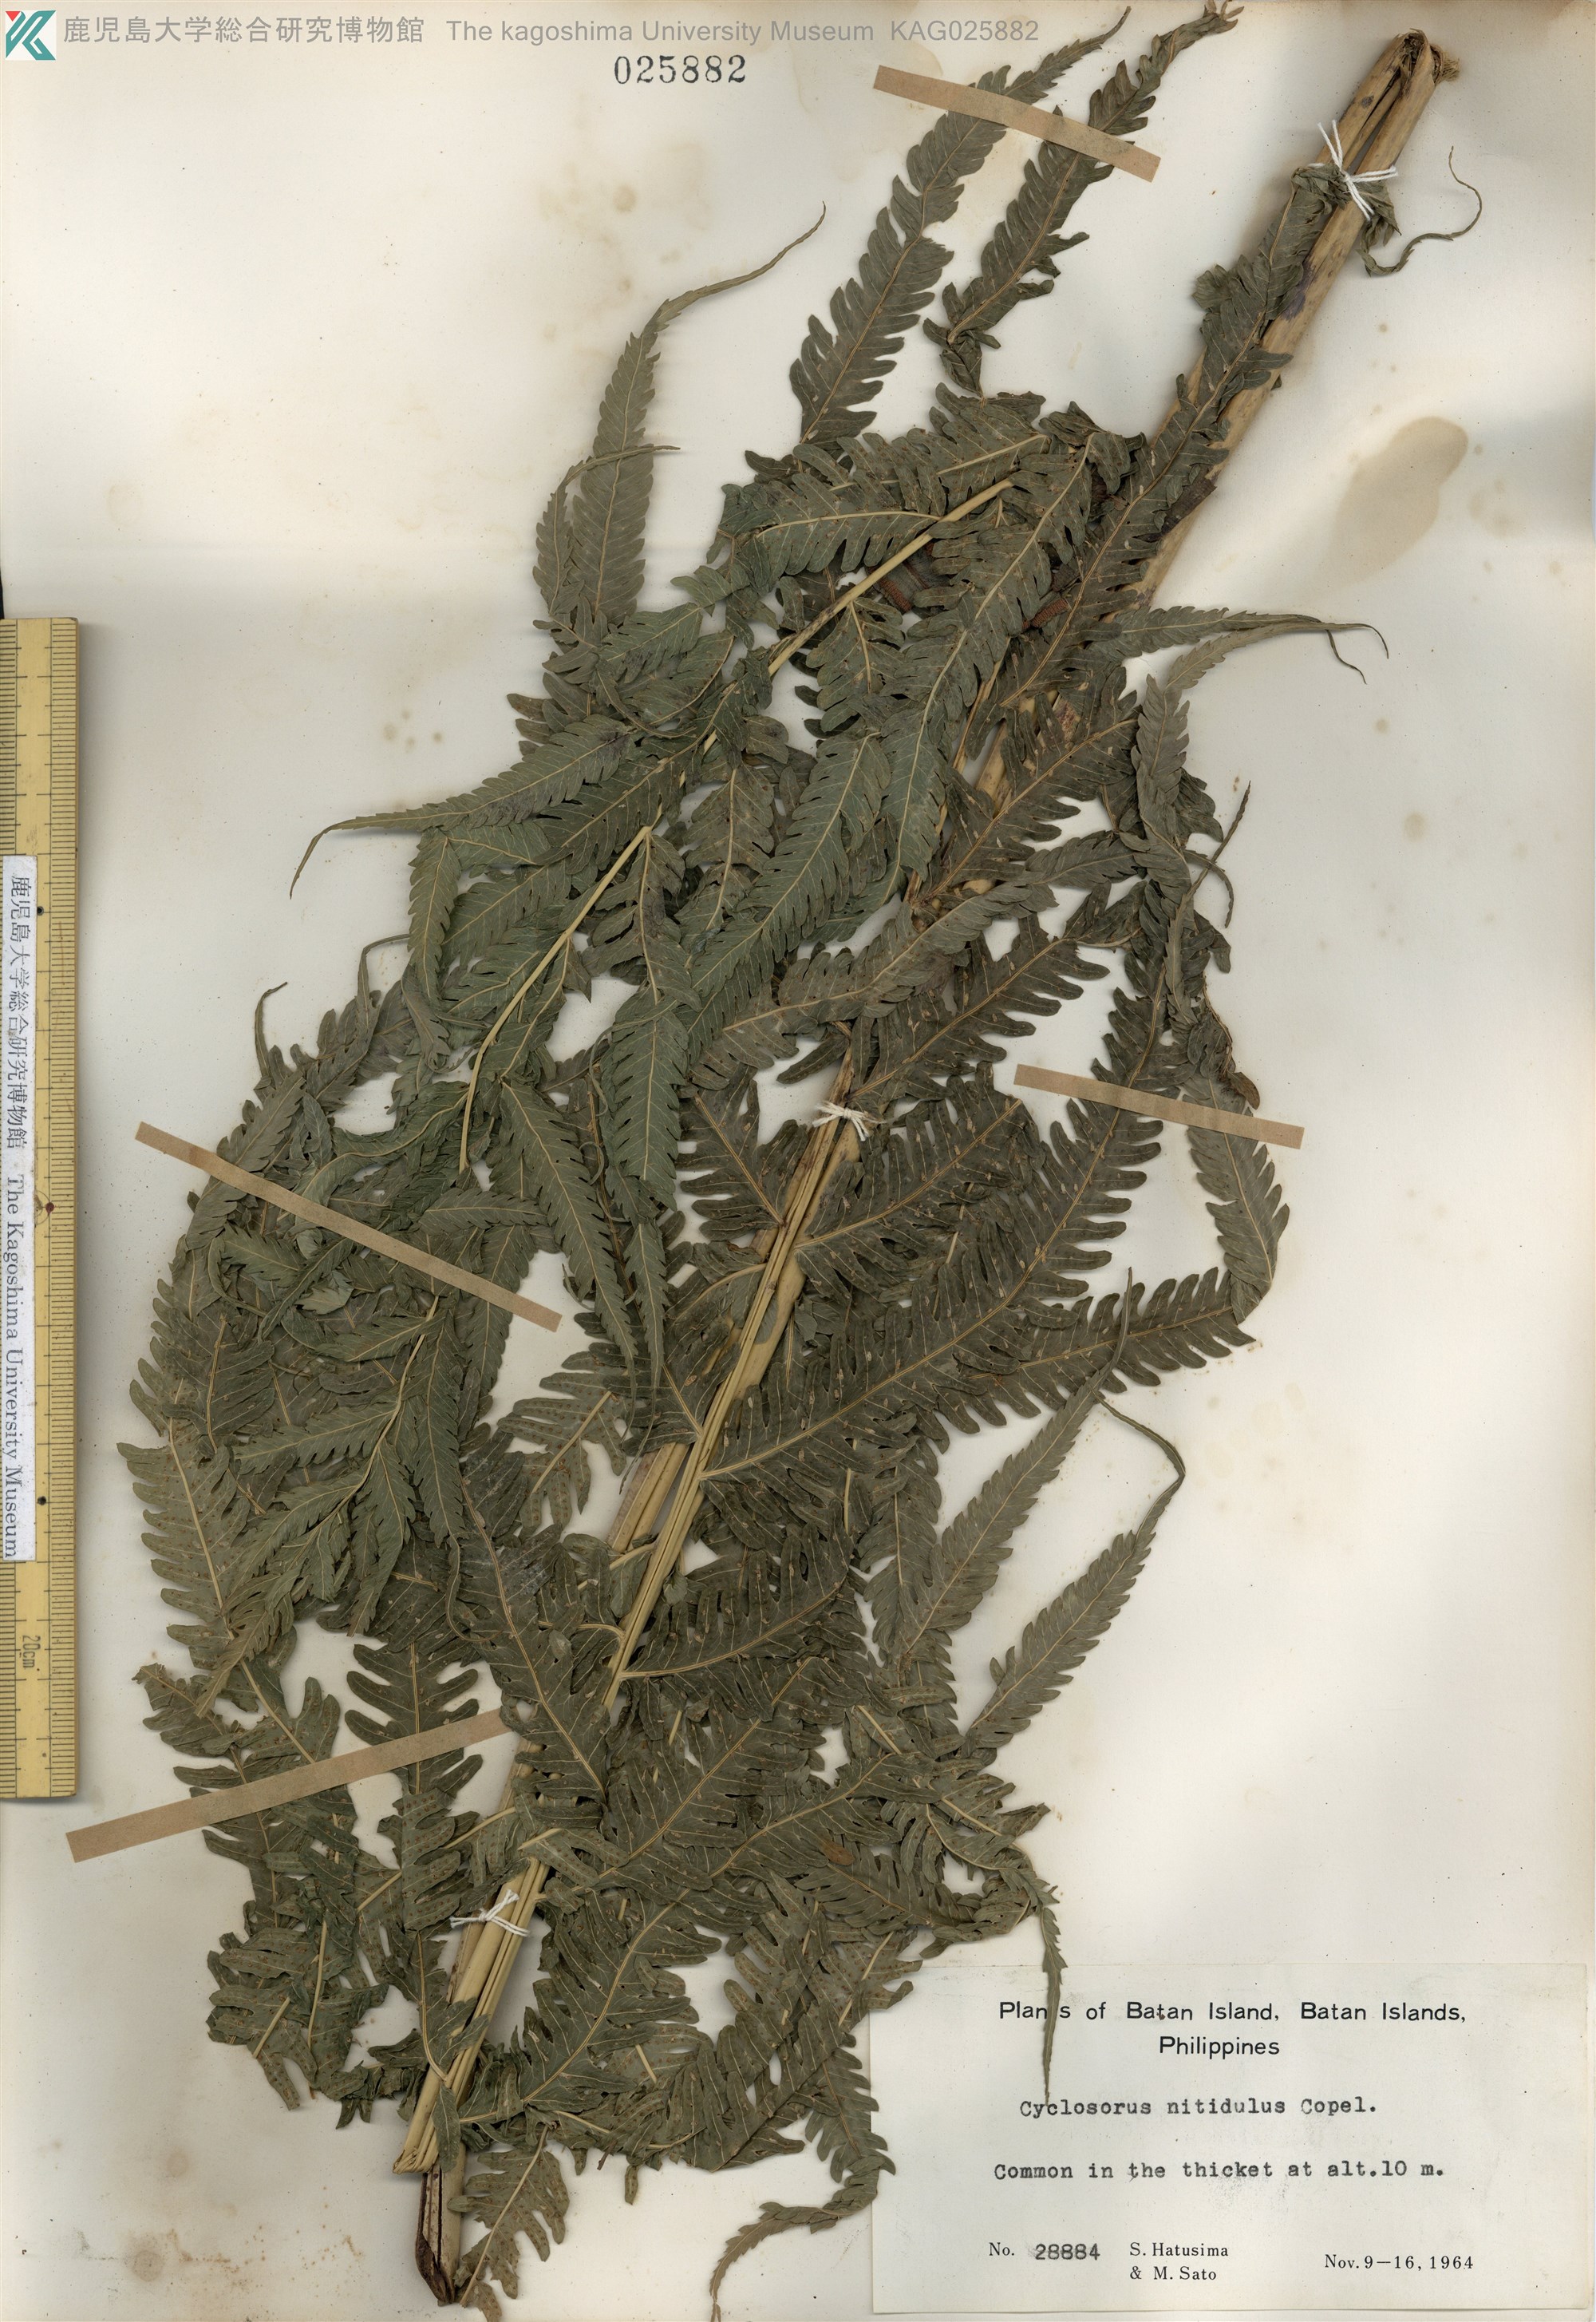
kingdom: Plantae
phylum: Tracheophyta
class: Polypodiopsida
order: Polypodiales
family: Thelypteridaceae
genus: Reholttumia
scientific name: Reholttumia nitidula
